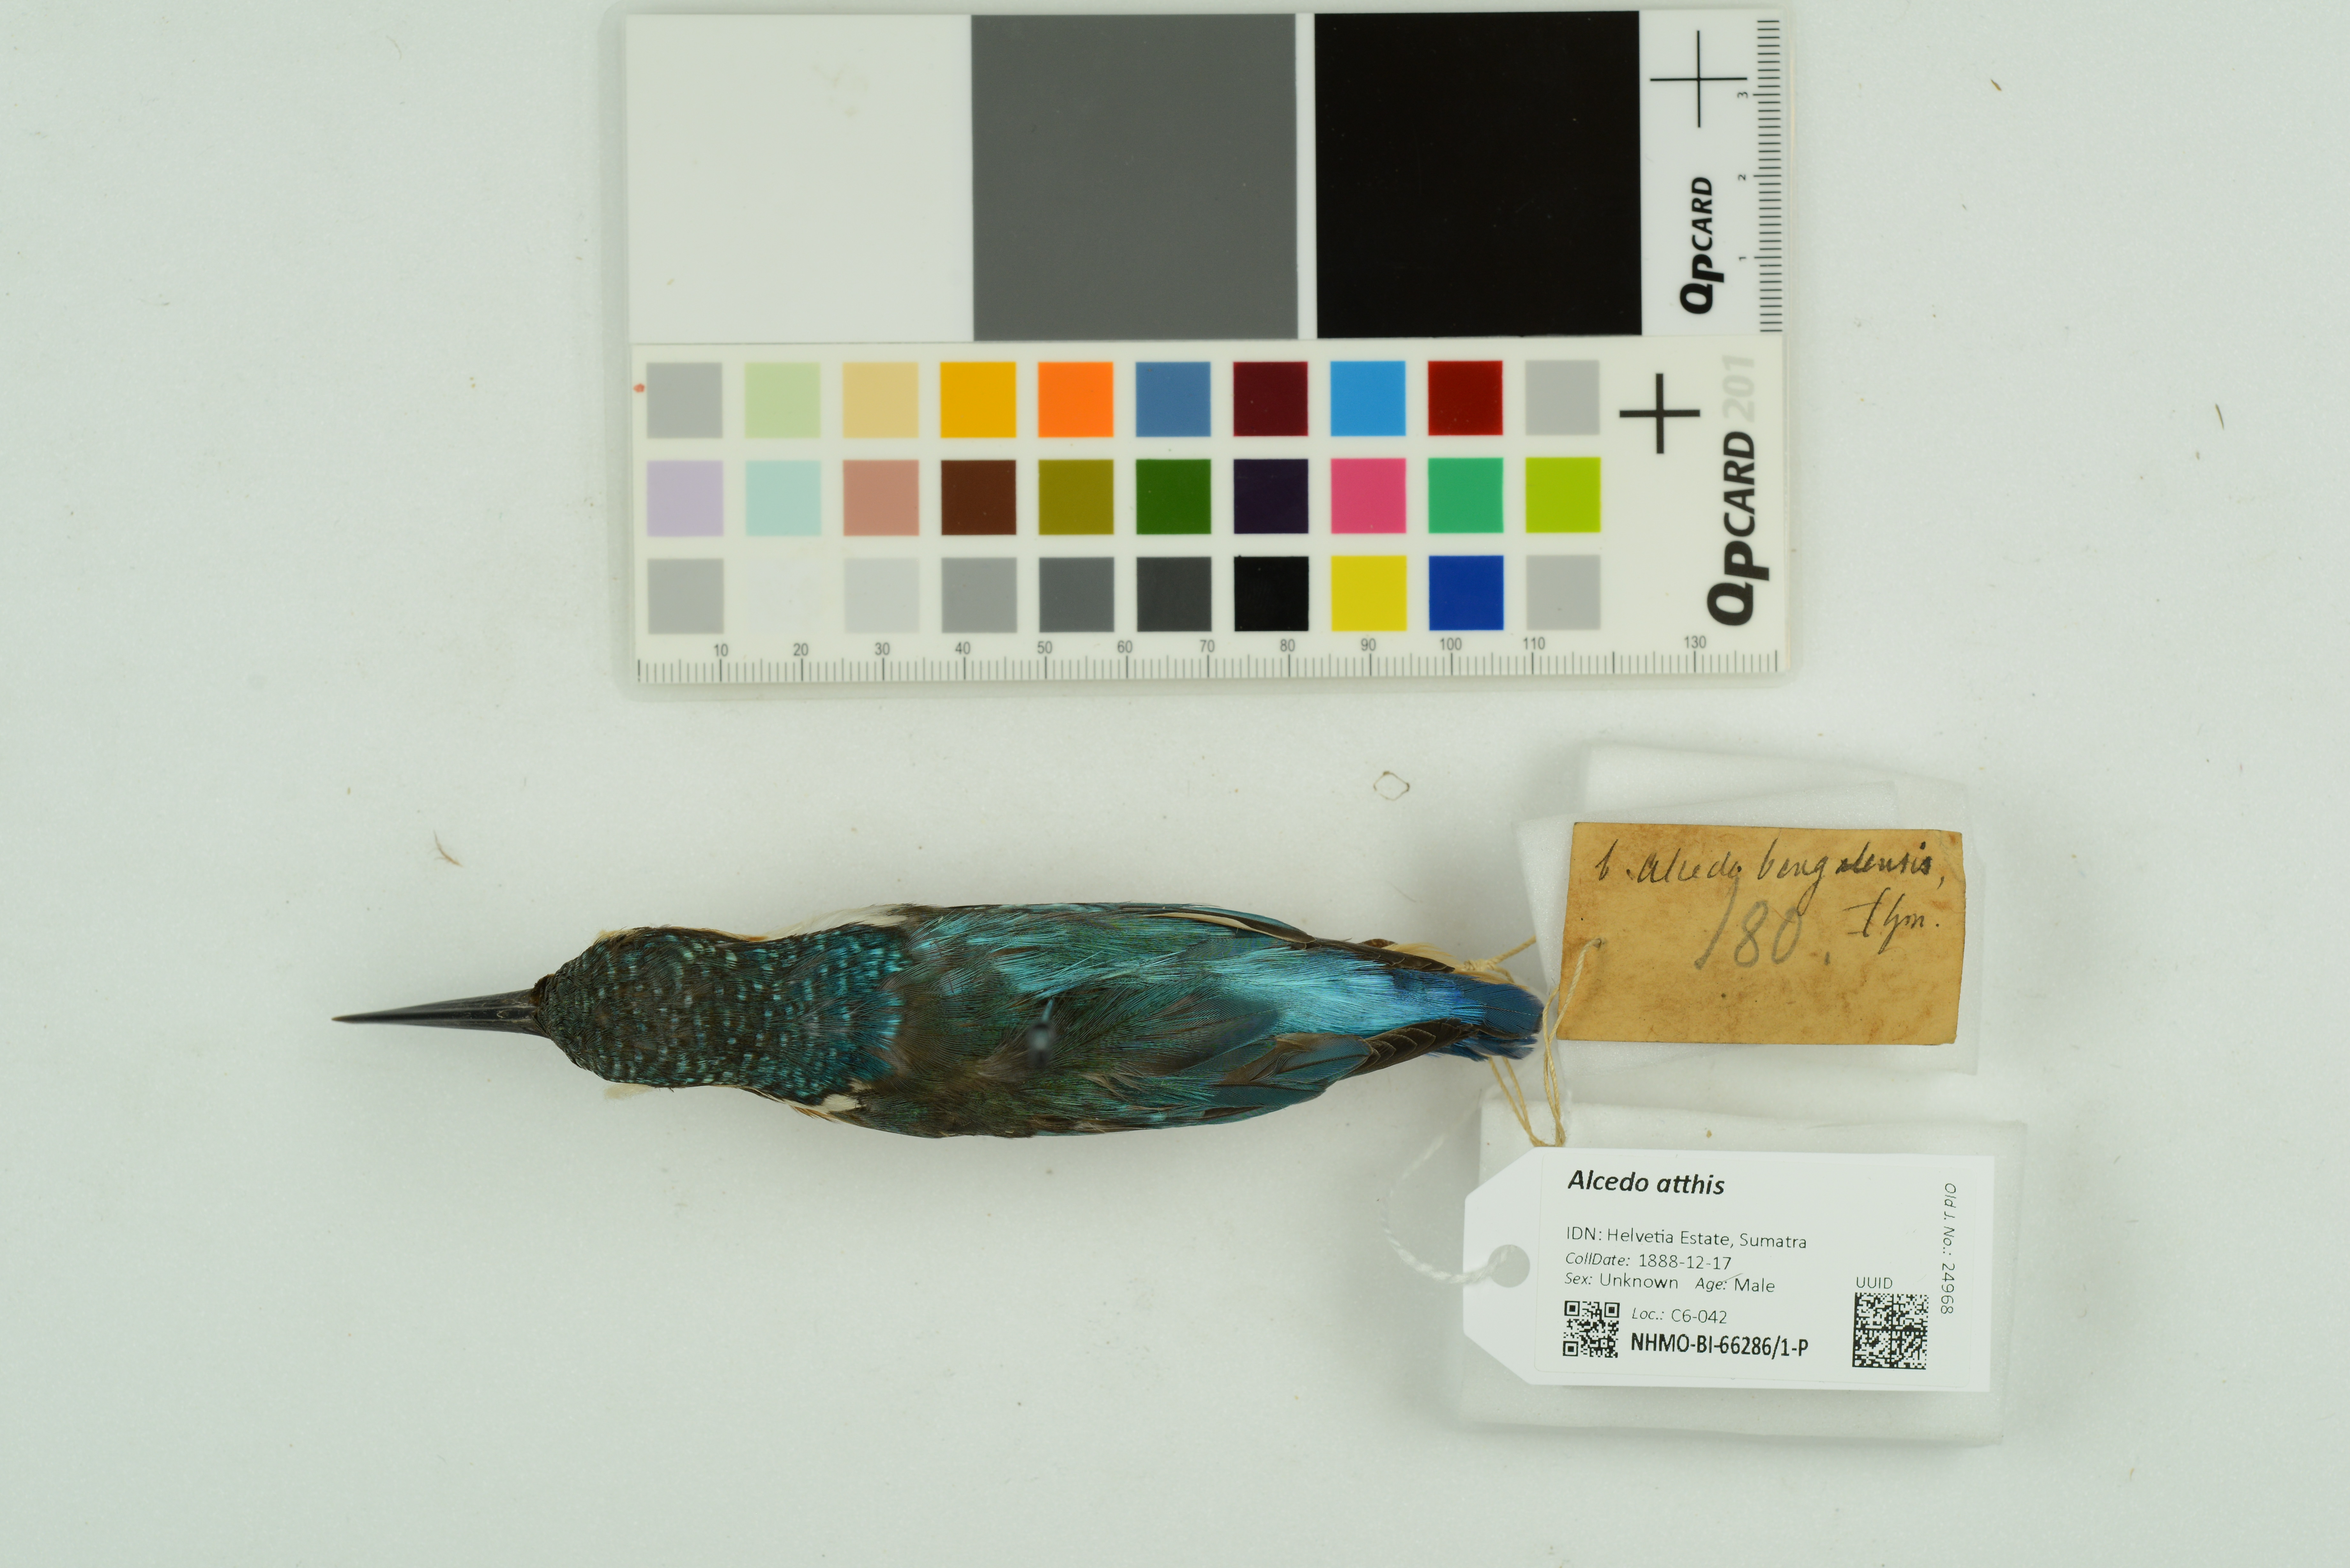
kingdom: Animalia
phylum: Chordata
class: Aves
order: Coraciiformes
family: Alcedinidae
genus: Alcedo
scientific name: Alcedo atthis
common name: Common kingfisher
